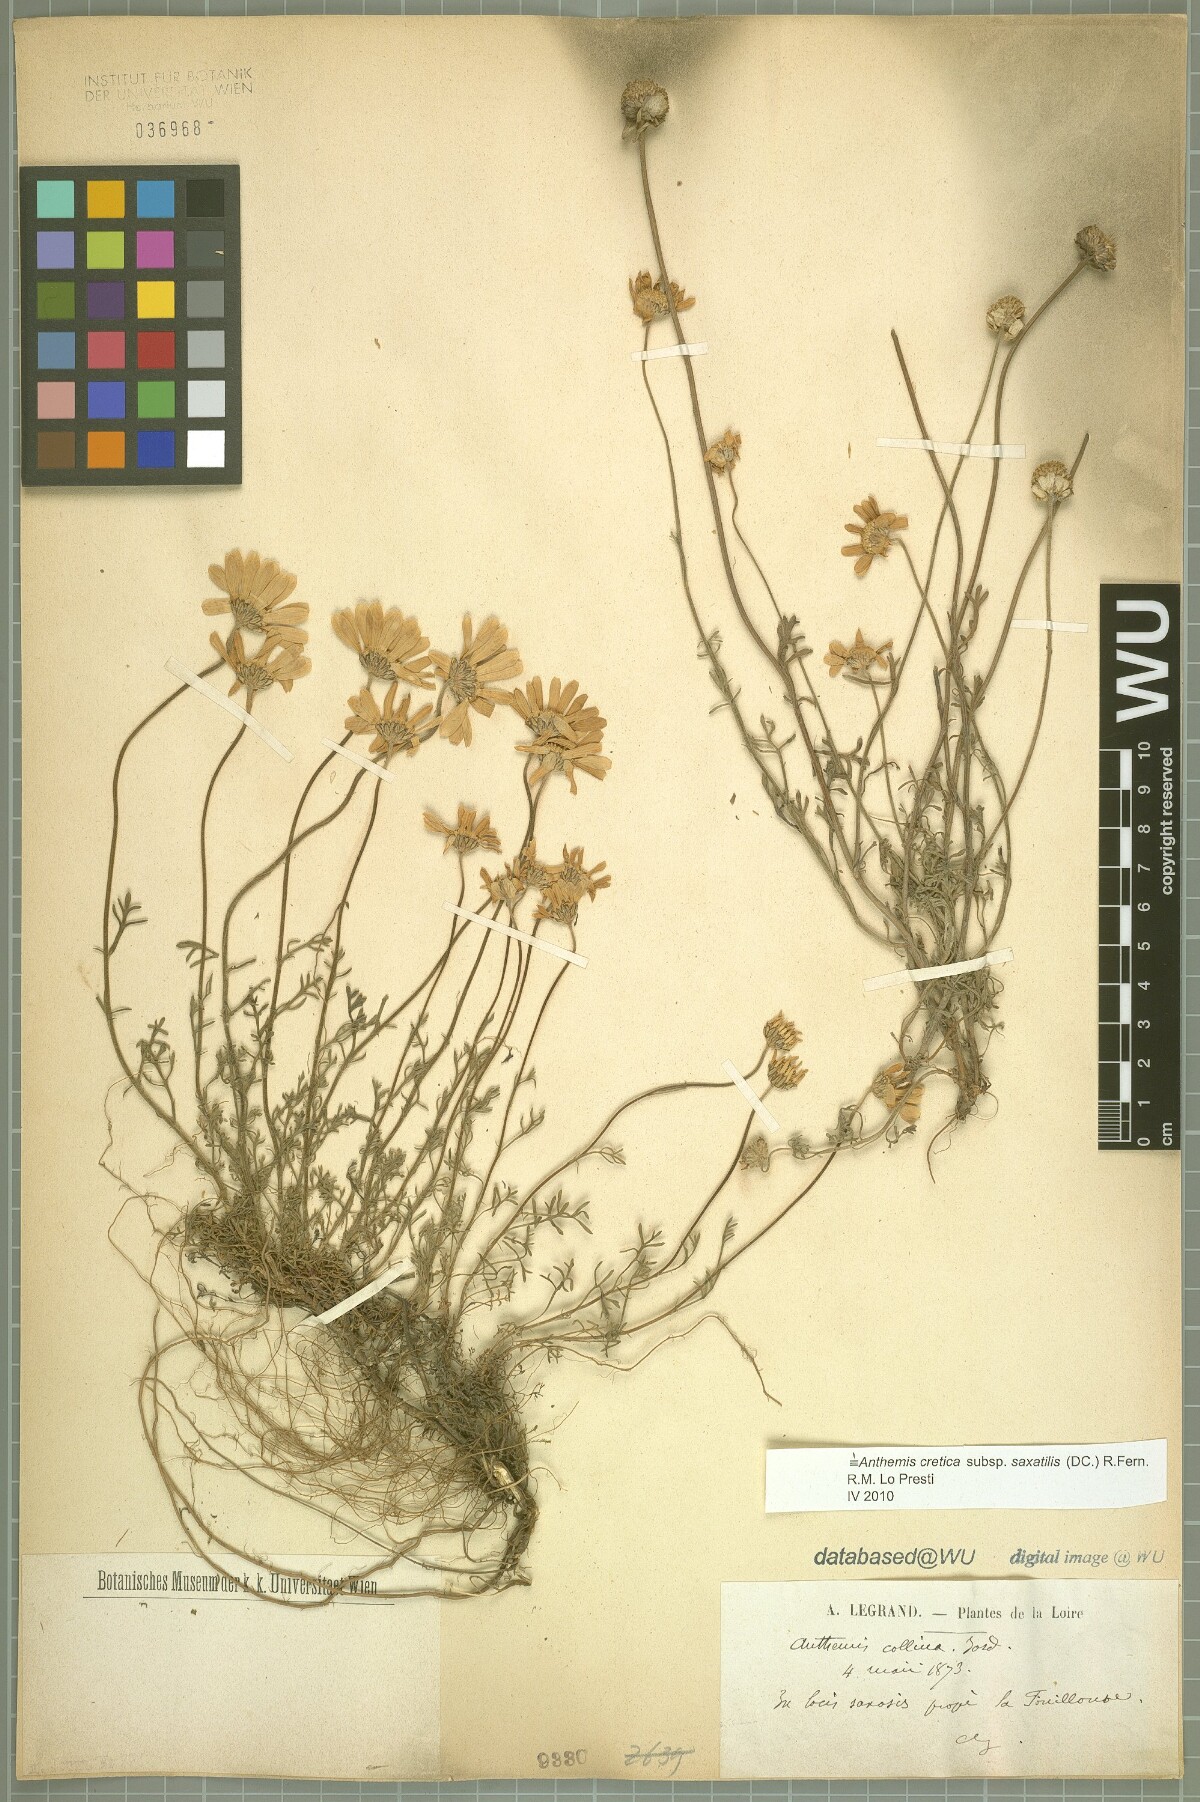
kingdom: Plantae
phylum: Tracheophyta
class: Magnoliopsida
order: Asterales
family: Asteraceae
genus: Anthemis
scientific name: Anthemis cretica
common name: Mountain dog-daisy
